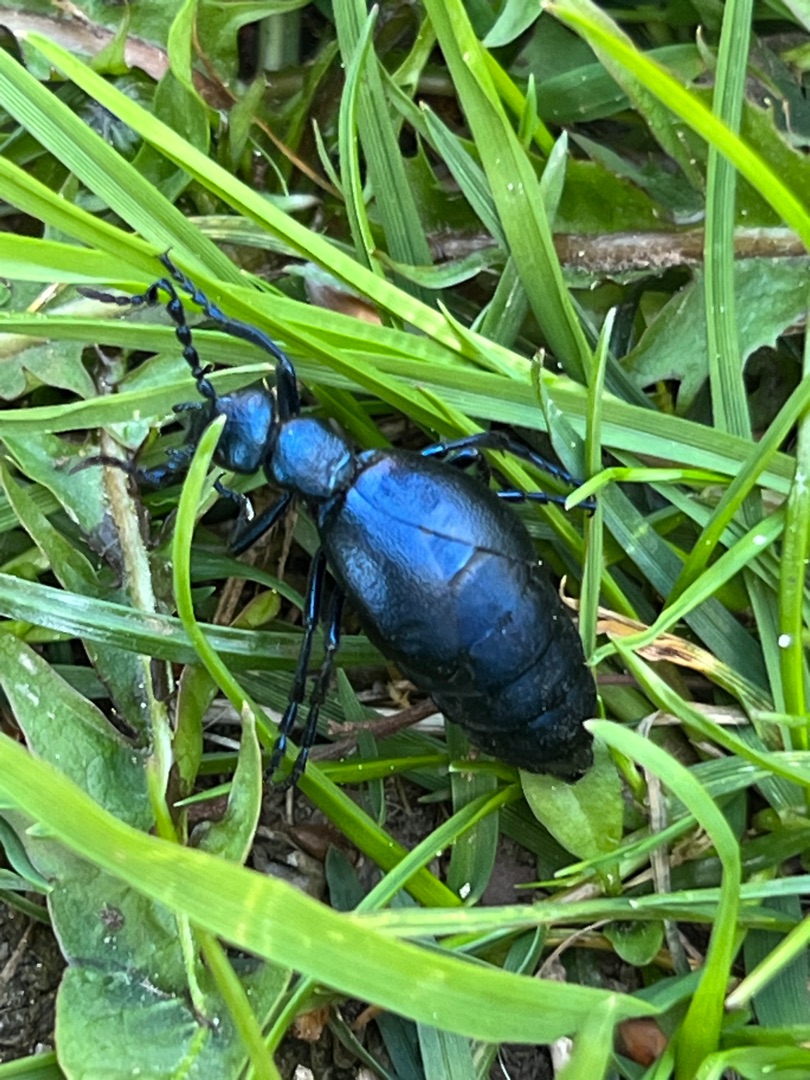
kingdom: Animalia
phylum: Arthropoda
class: Insecta
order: Coleoptera
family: Meloidae
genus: Meloe
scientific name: Meloe violaceus
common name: Blå oliebille
